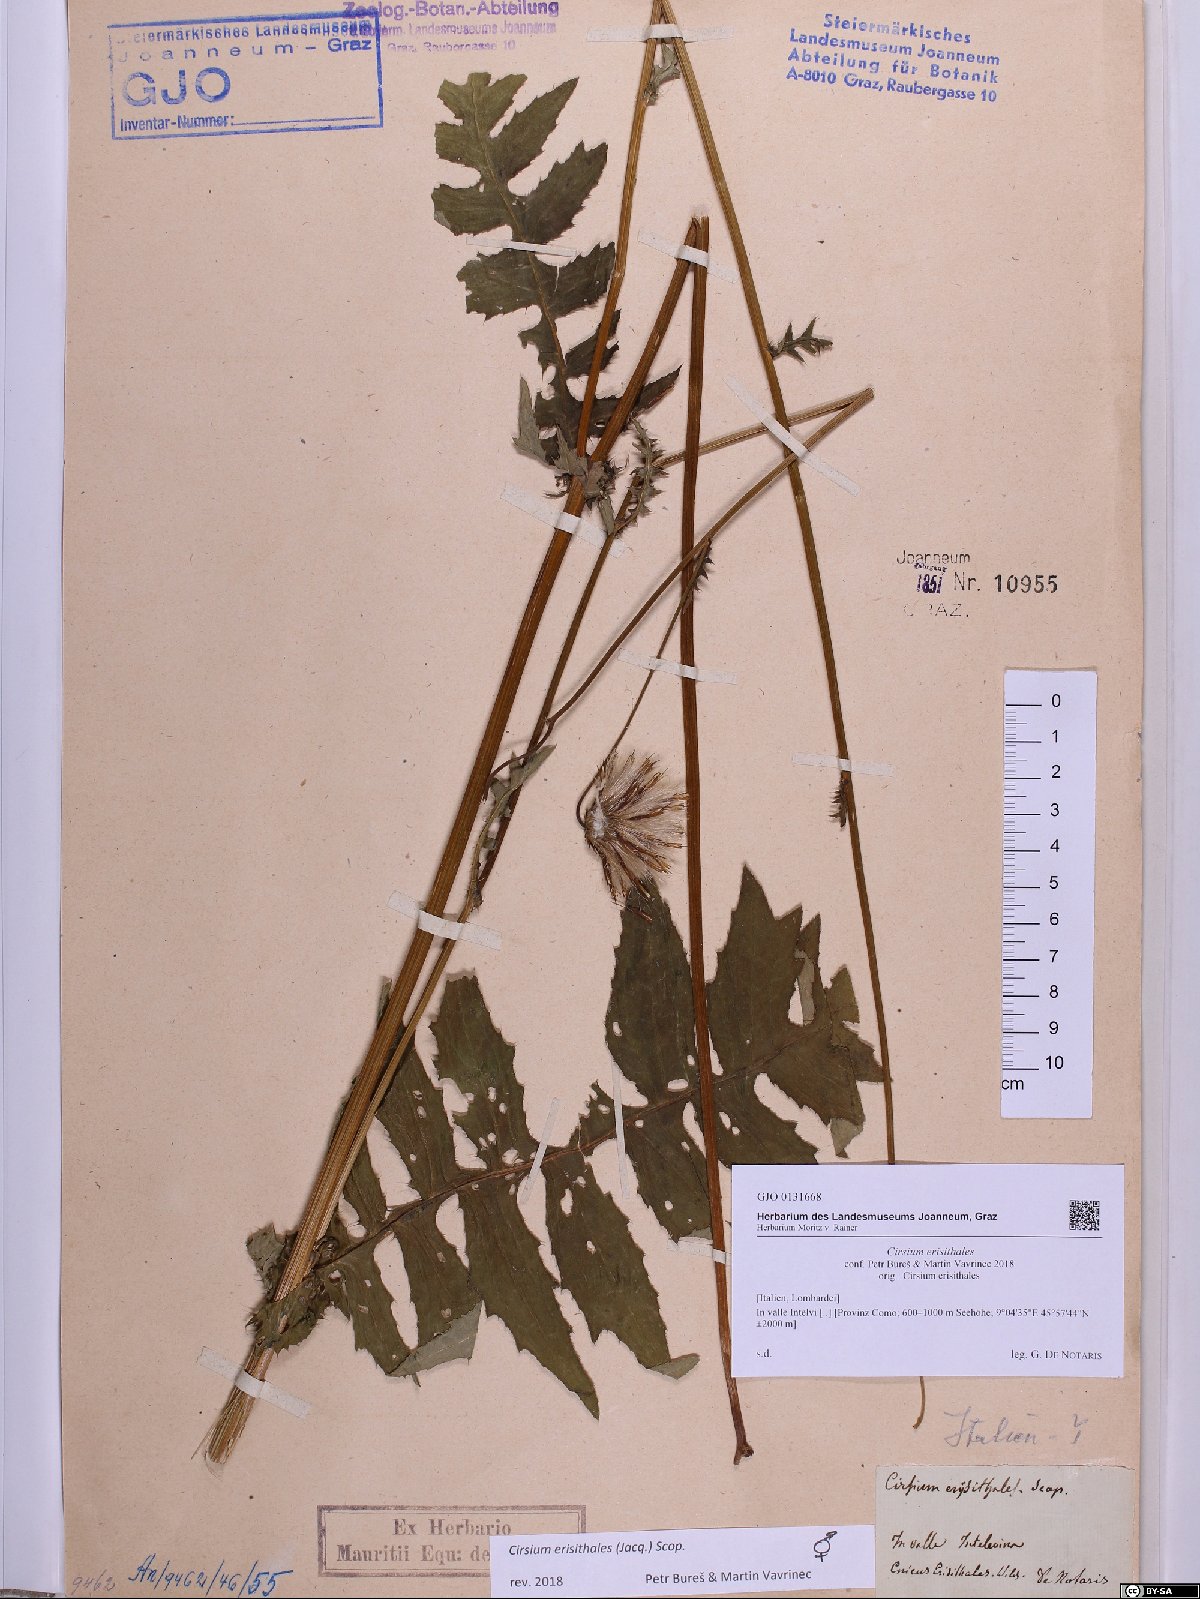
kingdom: Plantae
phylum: Tracheophyta
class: Magnoliopsida
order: Asterales
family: Asteraceae
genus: Cirsium
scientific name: Cirsium erisithales
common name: Yellow thistle
